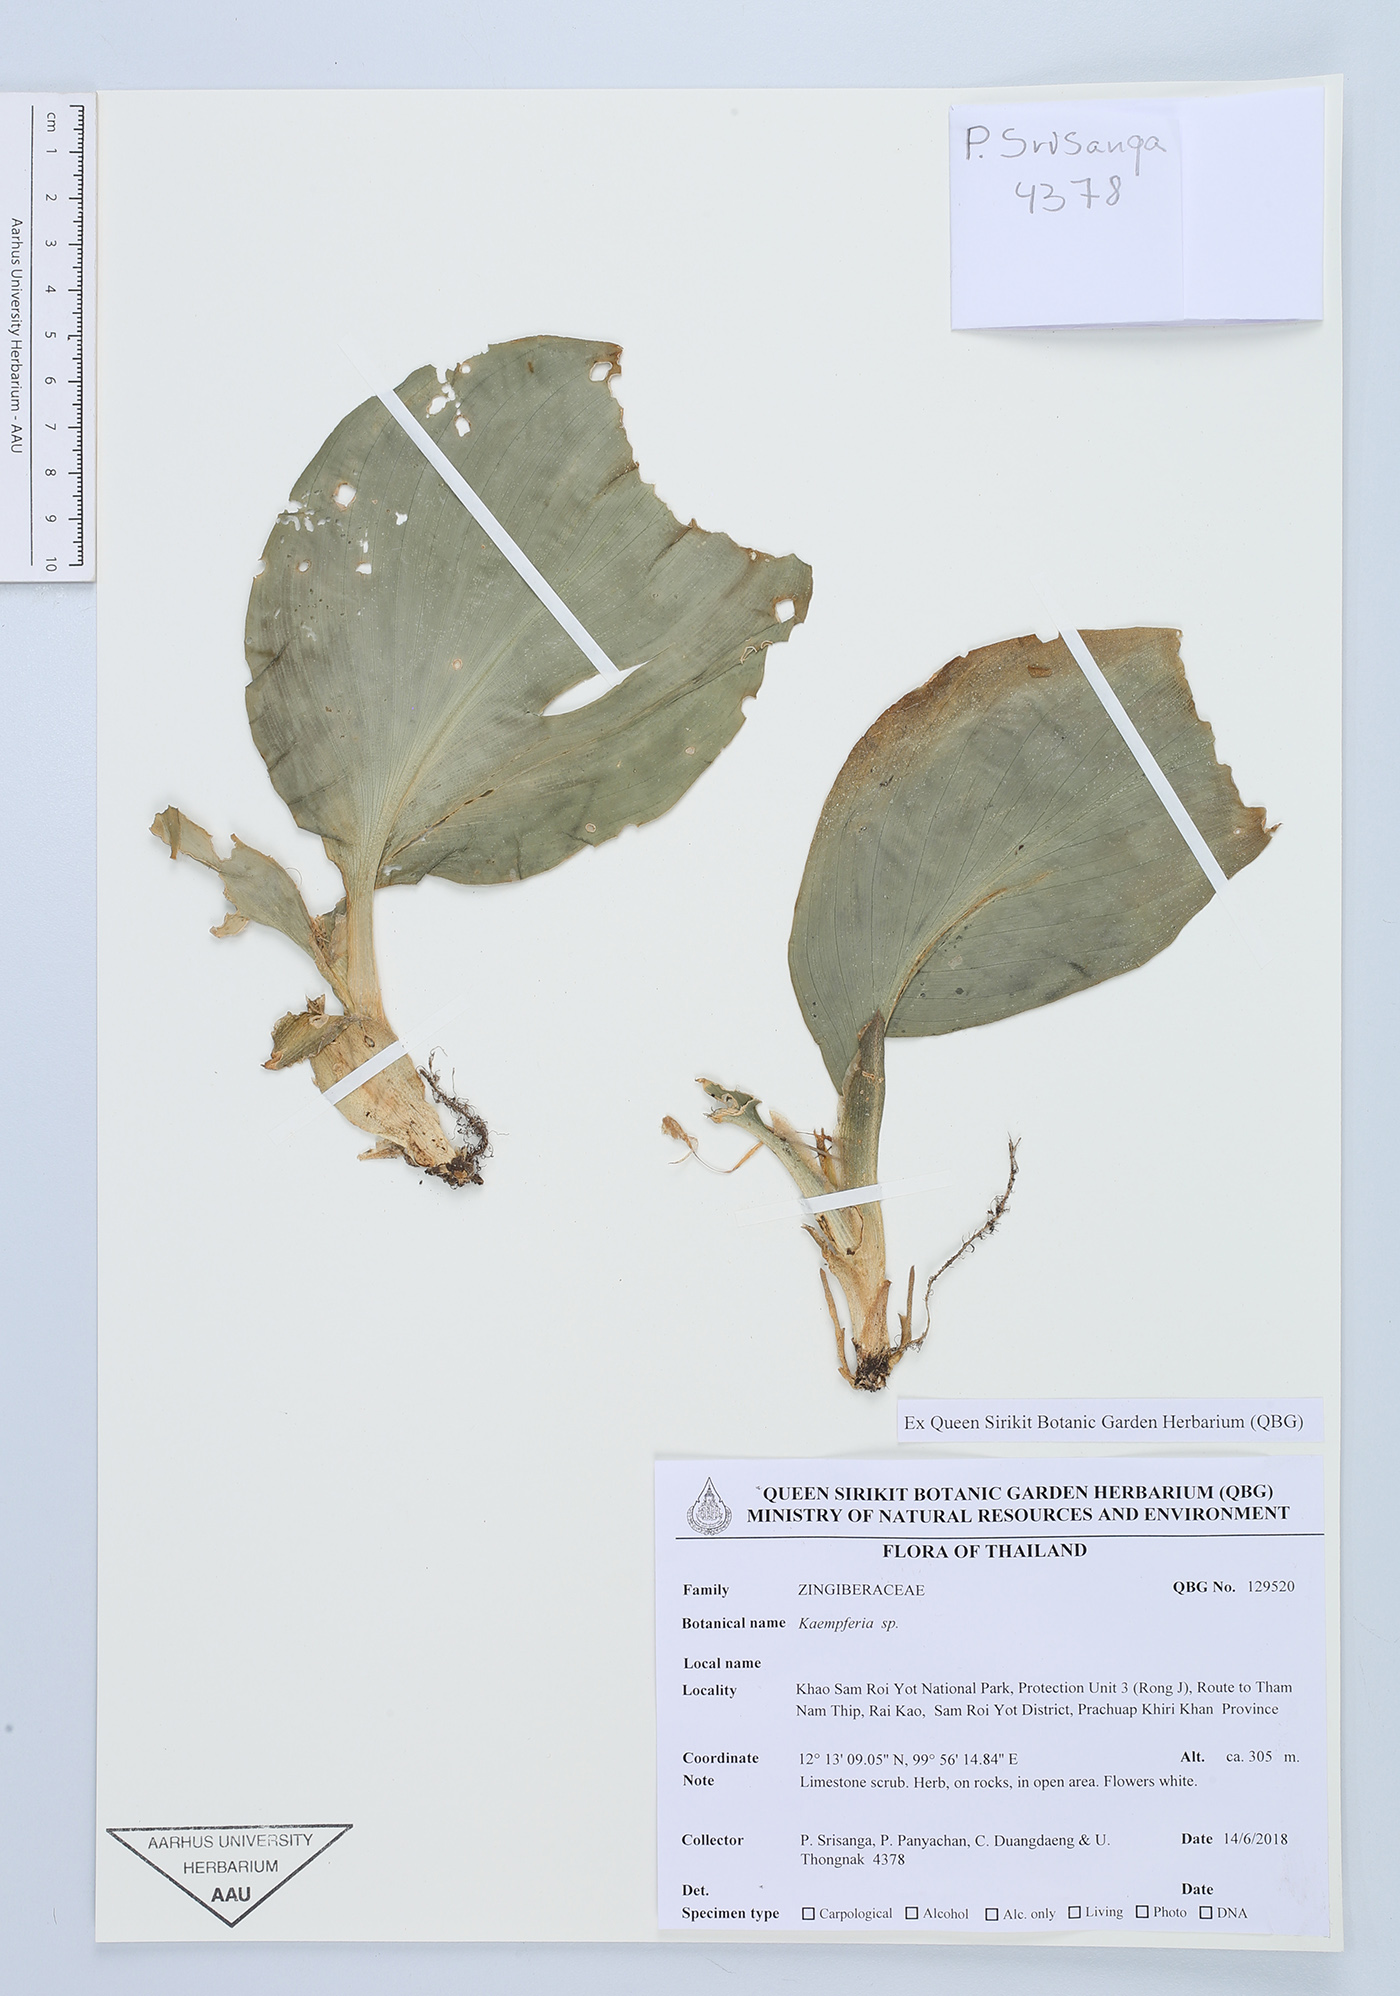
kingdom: Plantae
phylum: Tracheophyta
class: Liliopsida
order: Zingiberales
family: Zingiberaceae
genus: Kaempferia
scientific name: Kaempferia
